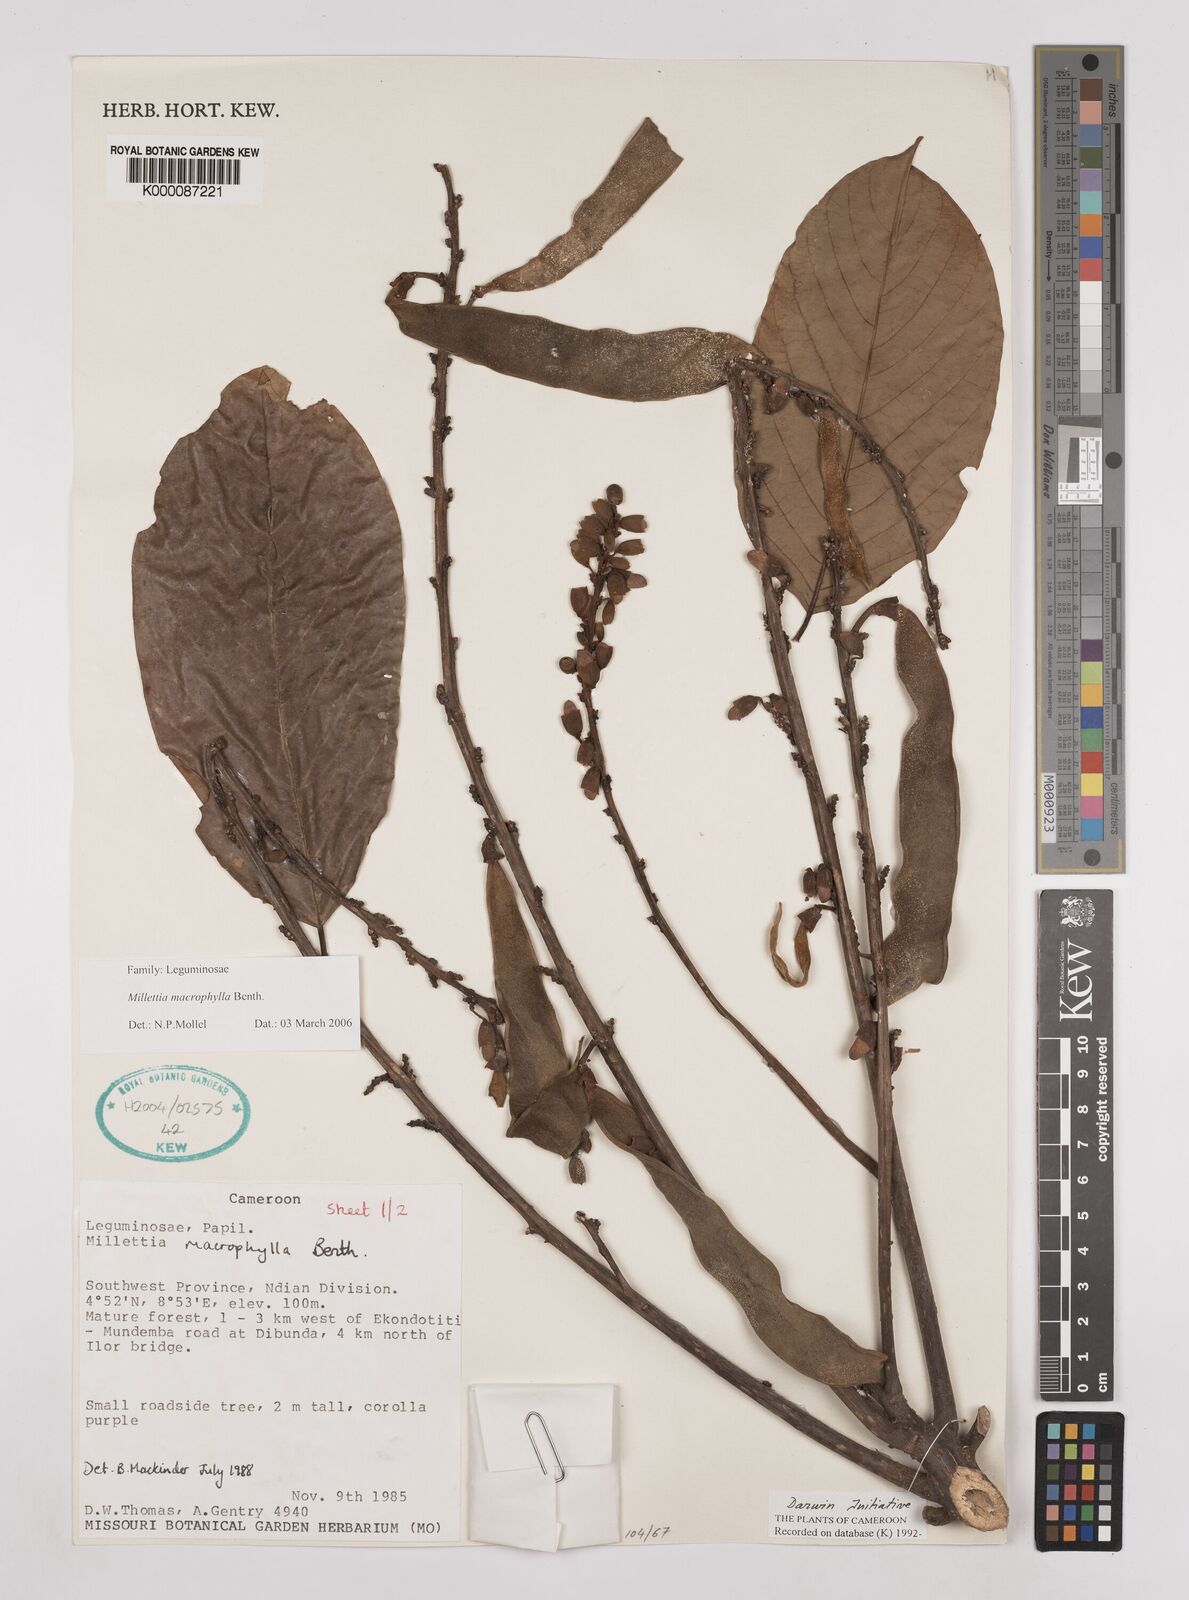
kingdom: Plantae
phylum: Tracheophyta
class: Magnoliopsida
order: Fabales
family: Fabaceae
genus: Millettia
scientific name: Millettia macrophylla
